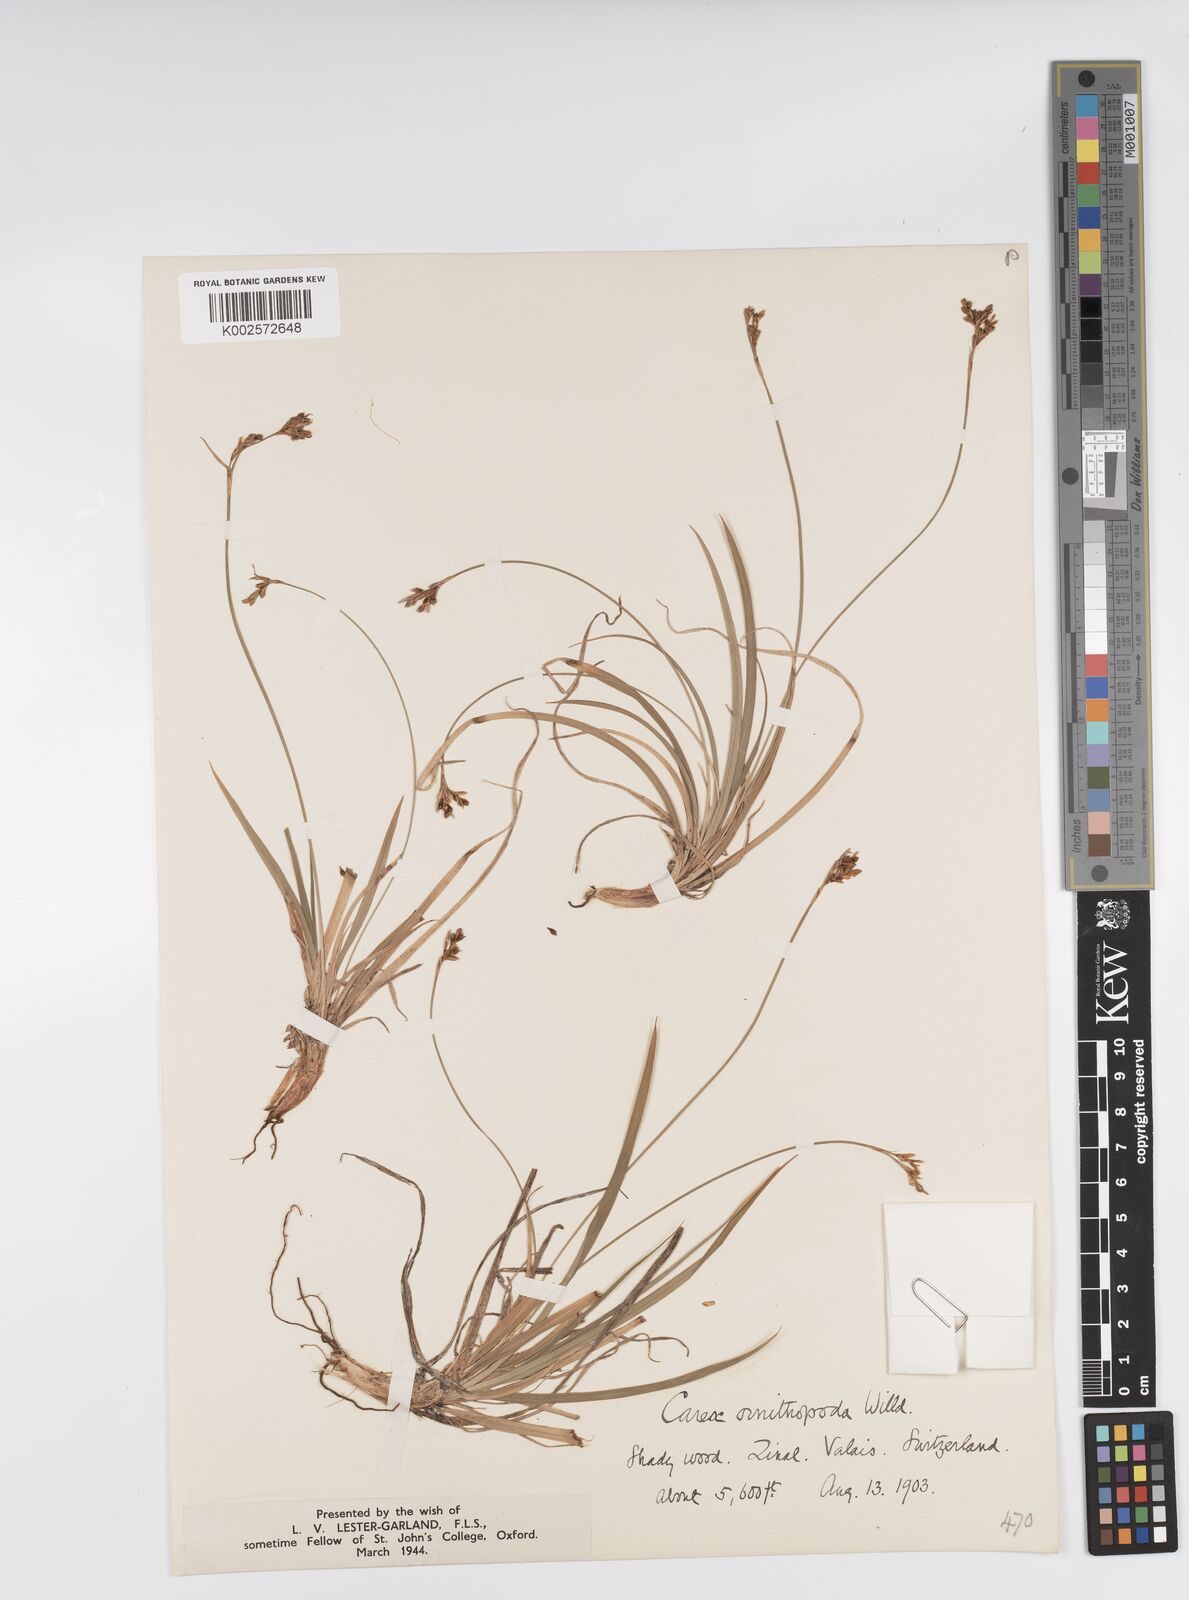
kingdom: Plantae
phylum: Tracheophyta
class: Liliopsida
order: Poales
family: Cyperaceae
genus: Carex
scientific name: Carex ornithopoda
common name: Bird's-foot sedge
